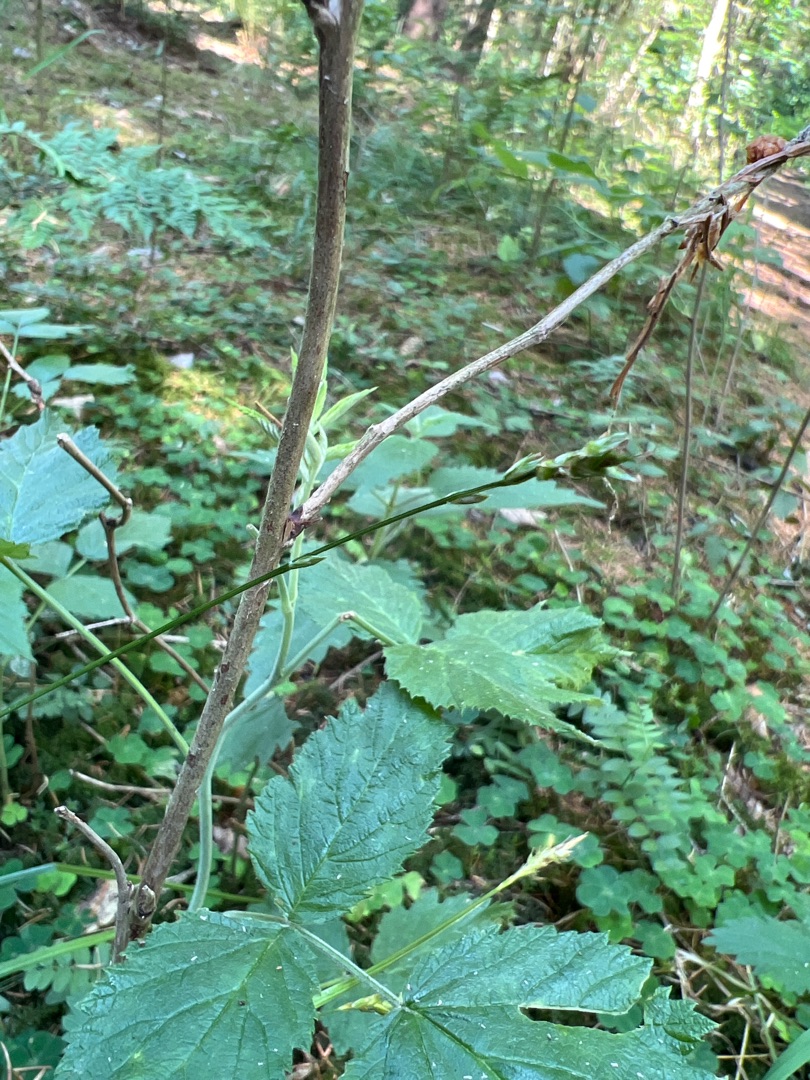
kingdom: Plantae
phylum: Tracheophyta
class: Liliopsida
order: Poales
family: Cyperaceae
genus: Carex
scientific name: Carex leersii
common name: Mellembrudt star (underart)
